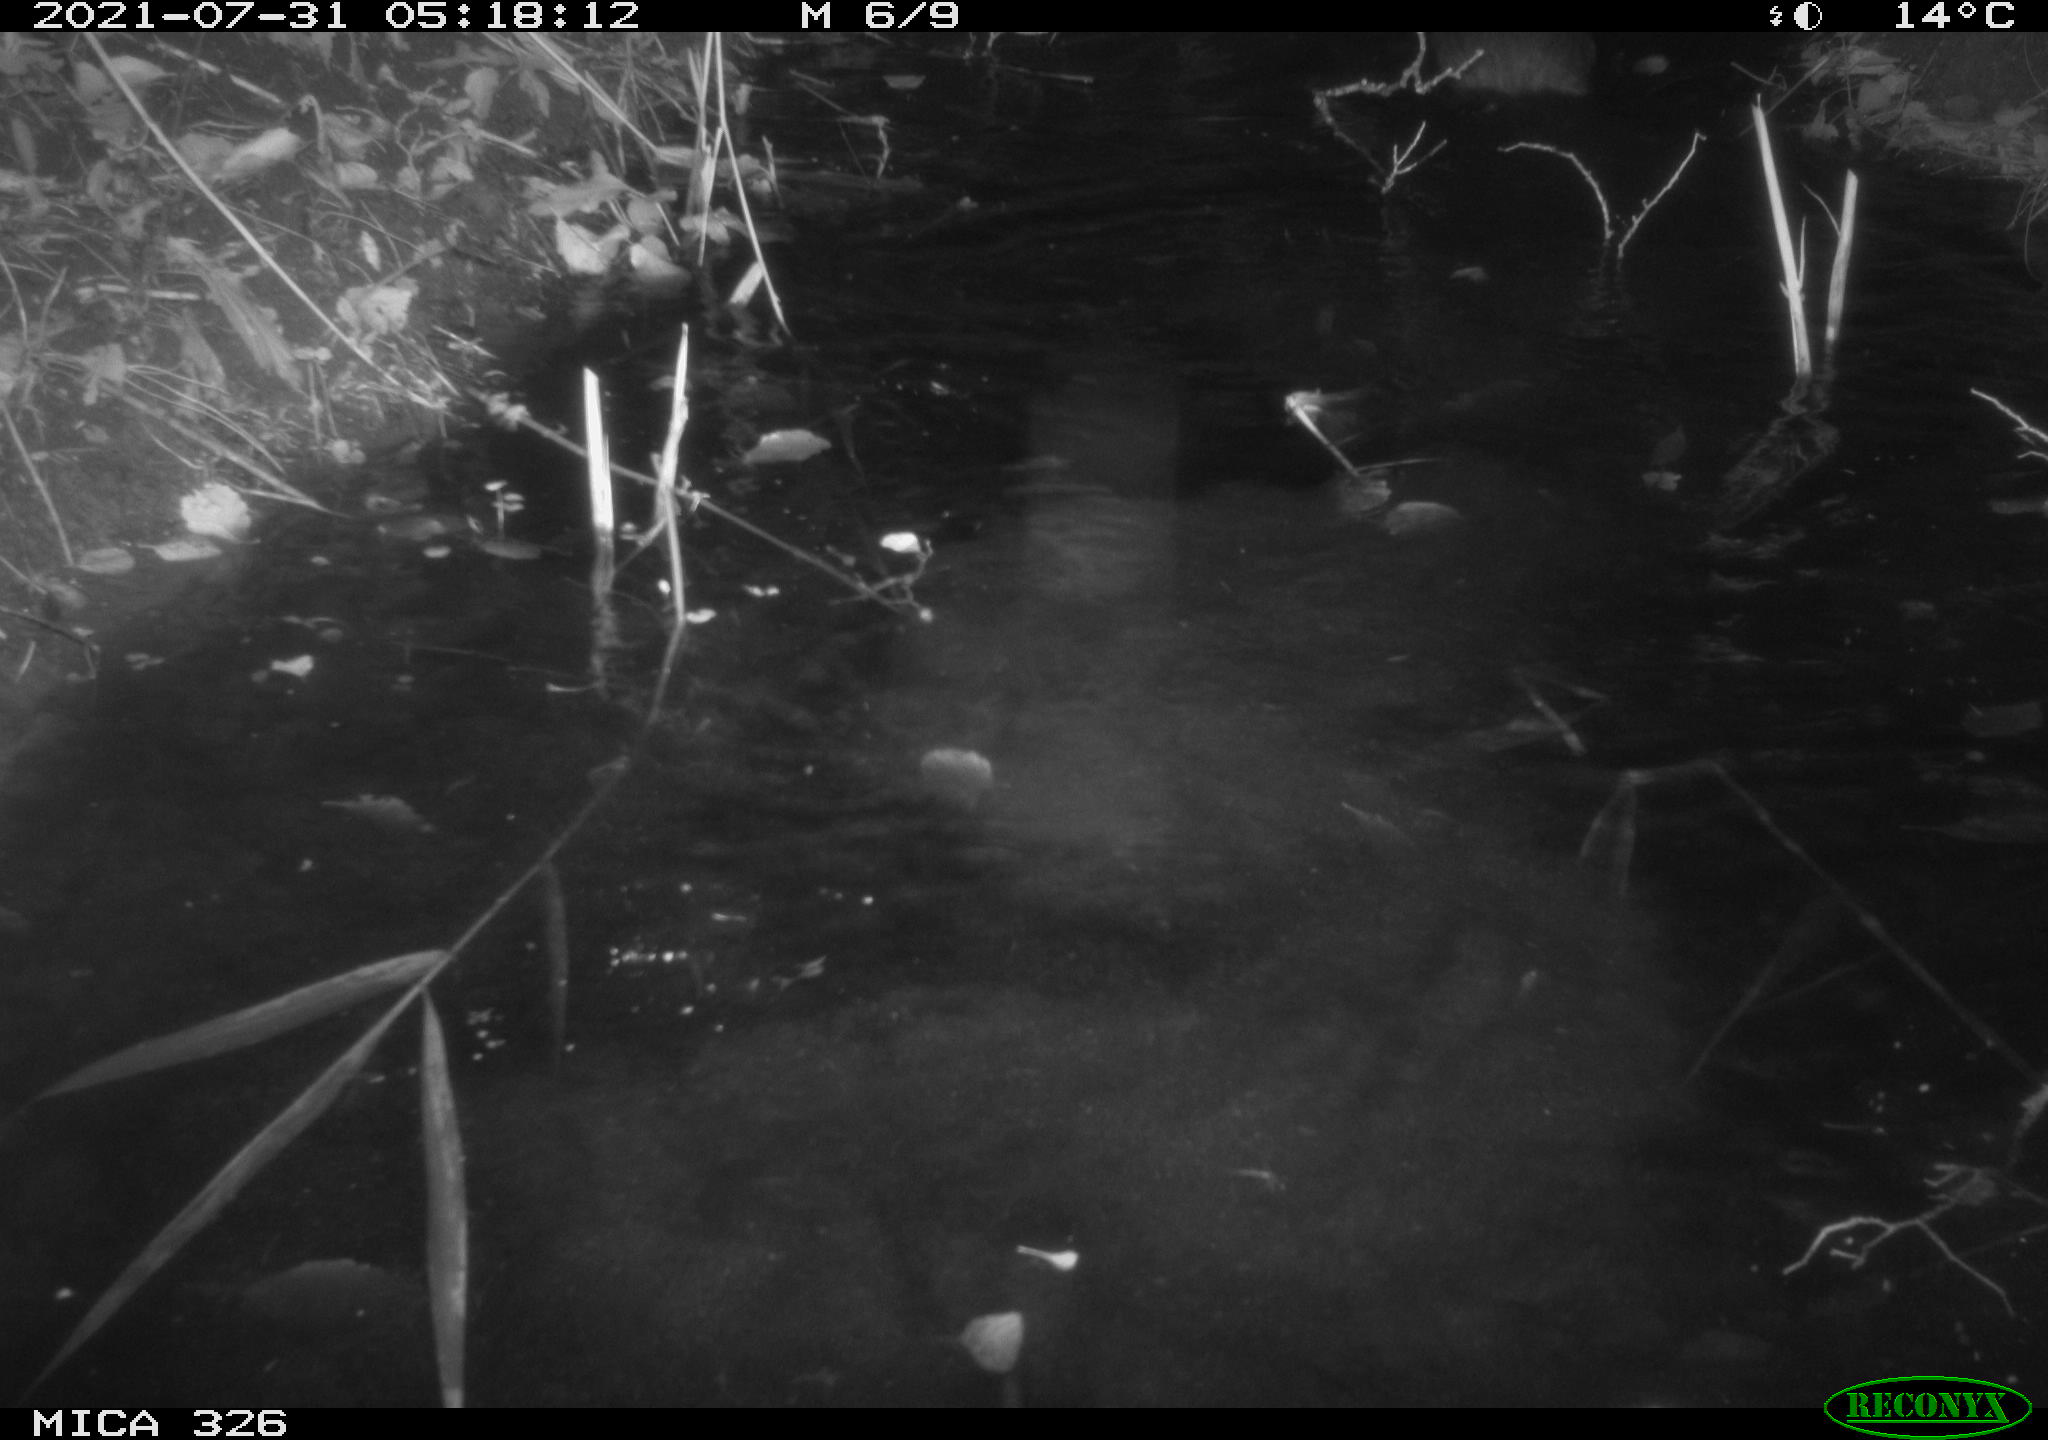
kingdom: Animalia
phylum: Chordata
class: Mammalia
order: Rodentia
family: Myocastoridae
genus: Myocastor
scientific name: Myocastor coypus
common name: Coypu
